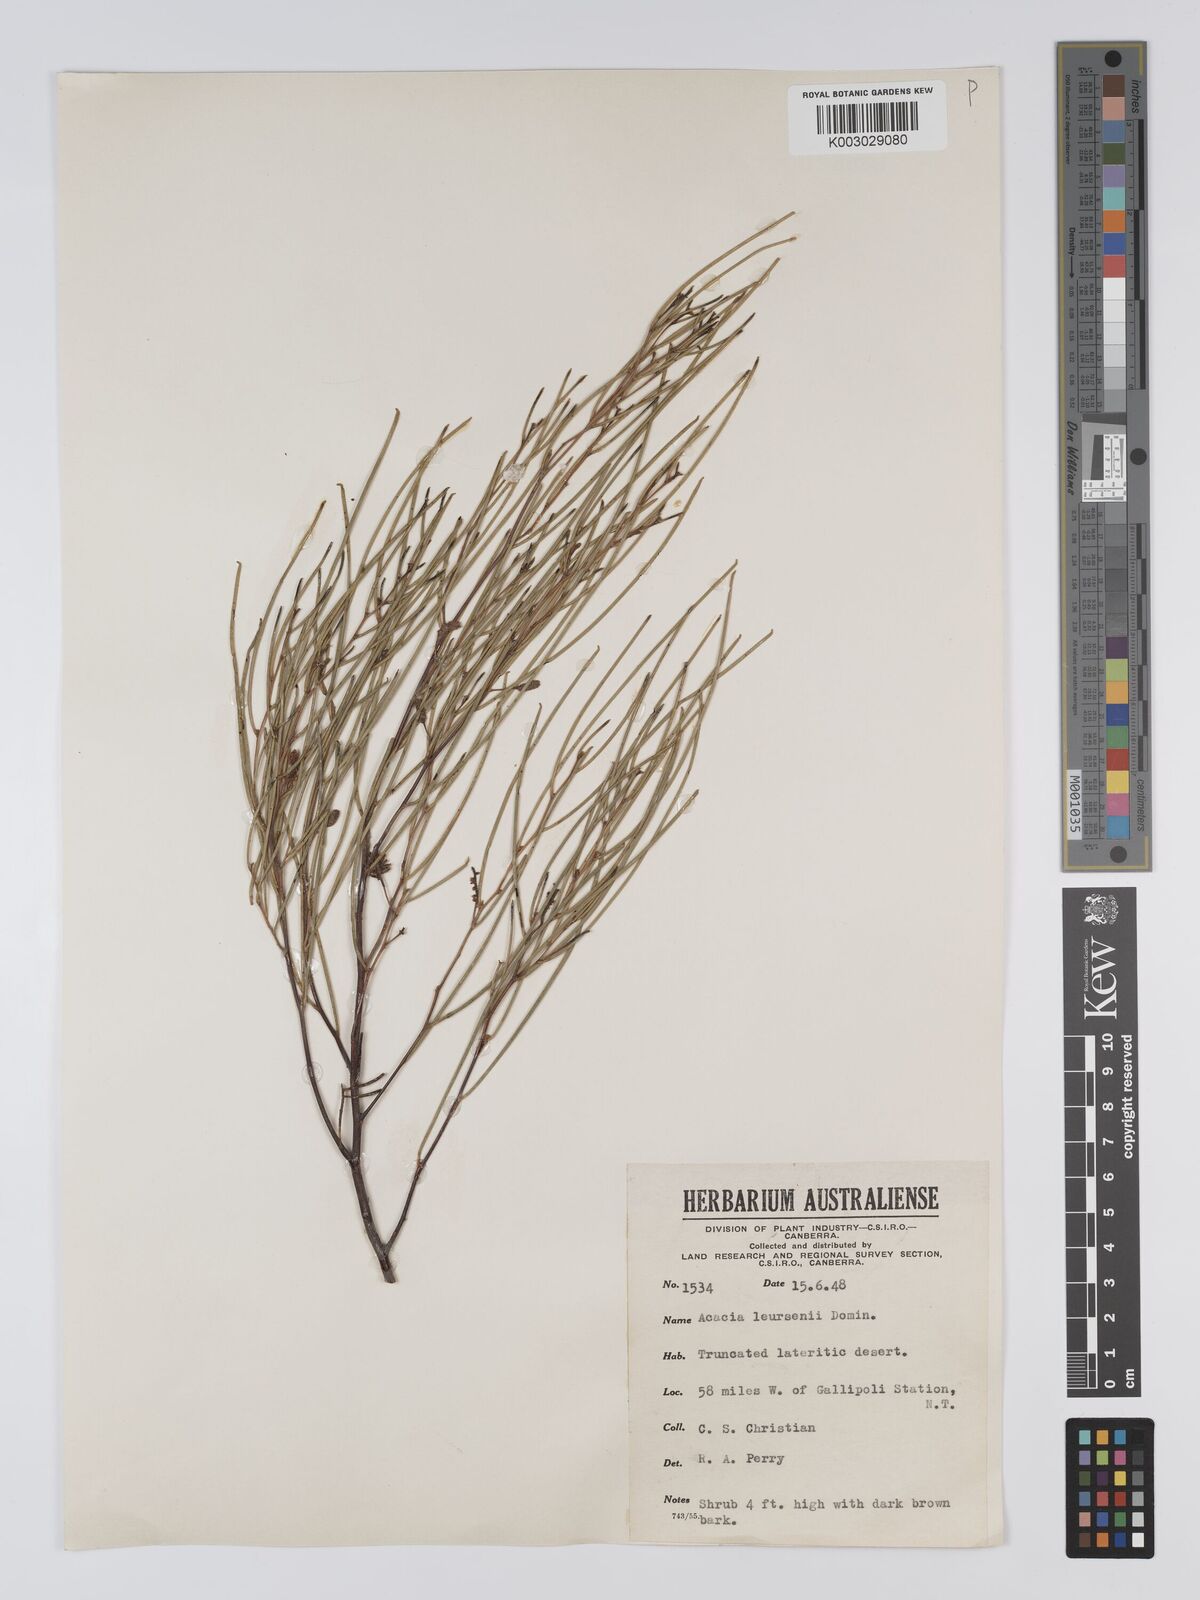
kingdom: Plantae
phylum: Tracheophyta
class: Magnoliopsida
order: Fabales
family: Fabaceae
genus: Acacia
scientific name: Acacia tenuissima
